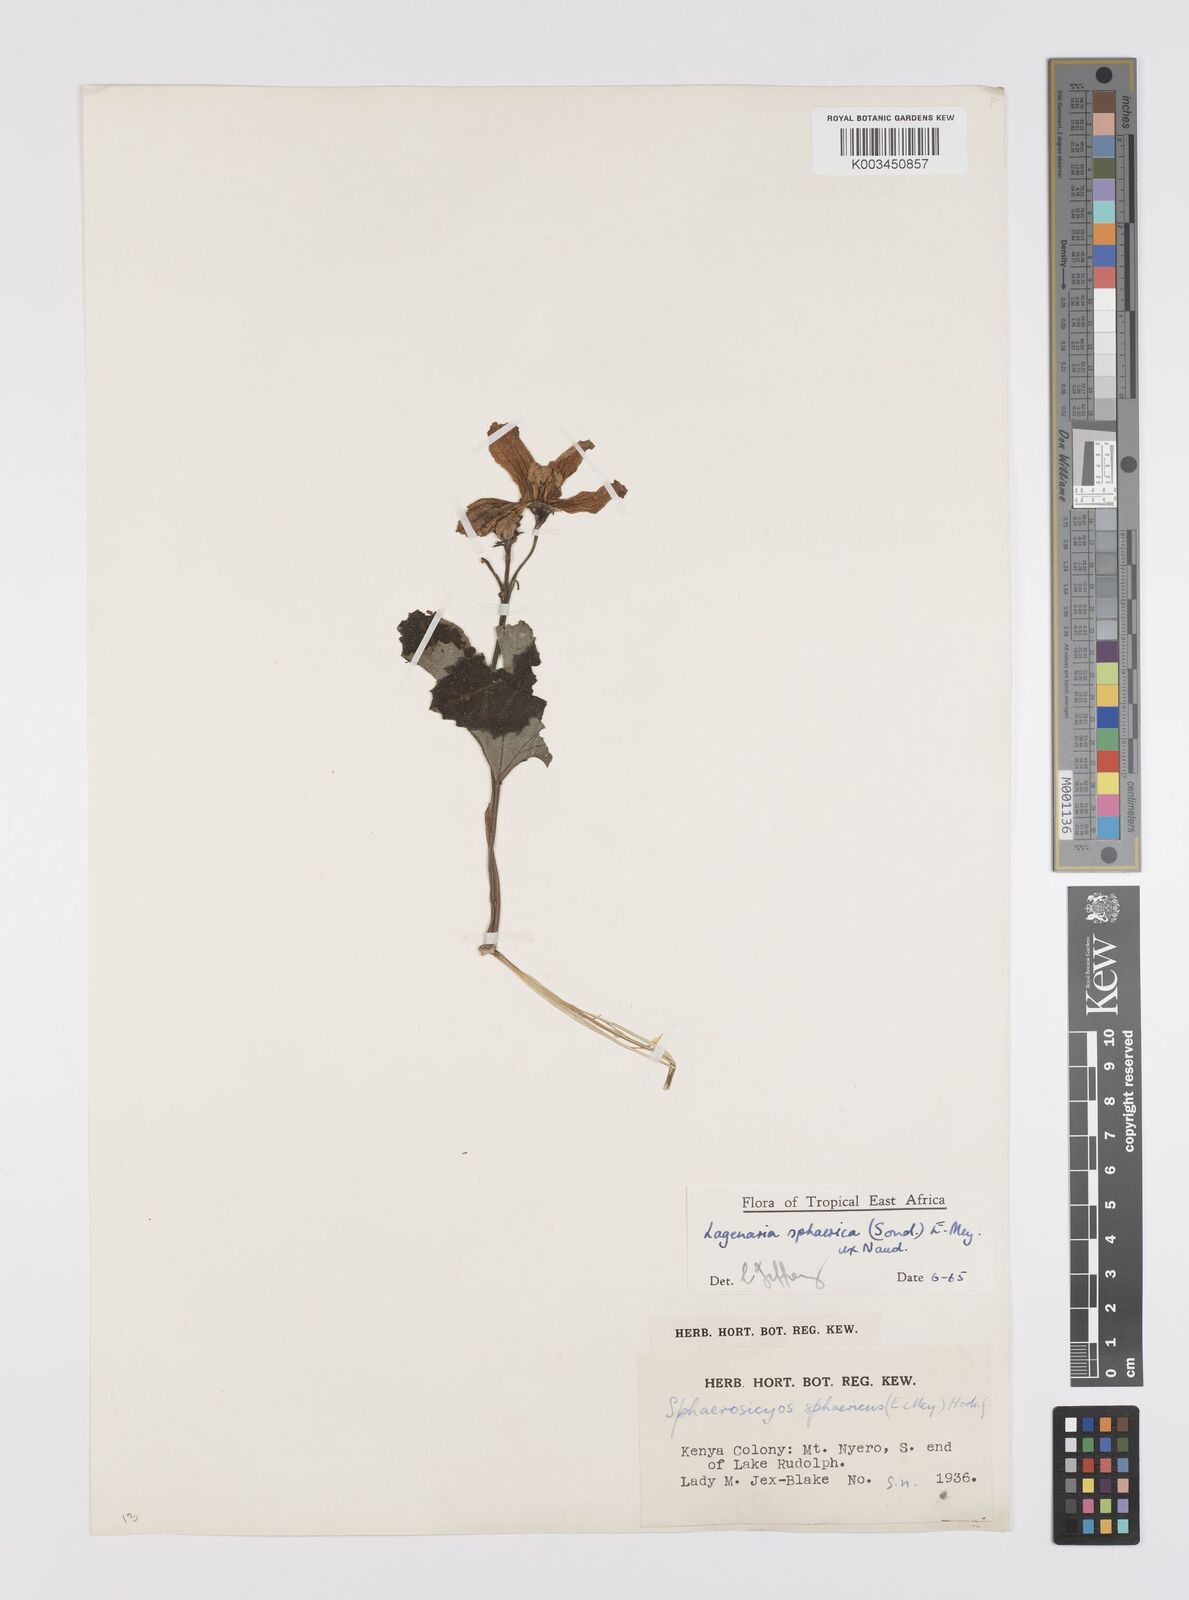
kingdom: Plantae
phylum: Tracheophyta
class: Magnoliopsida
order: Cucurbitales
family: Cucurbitaceae
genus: Lagenaria
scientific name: Lagenaria sphaerica
